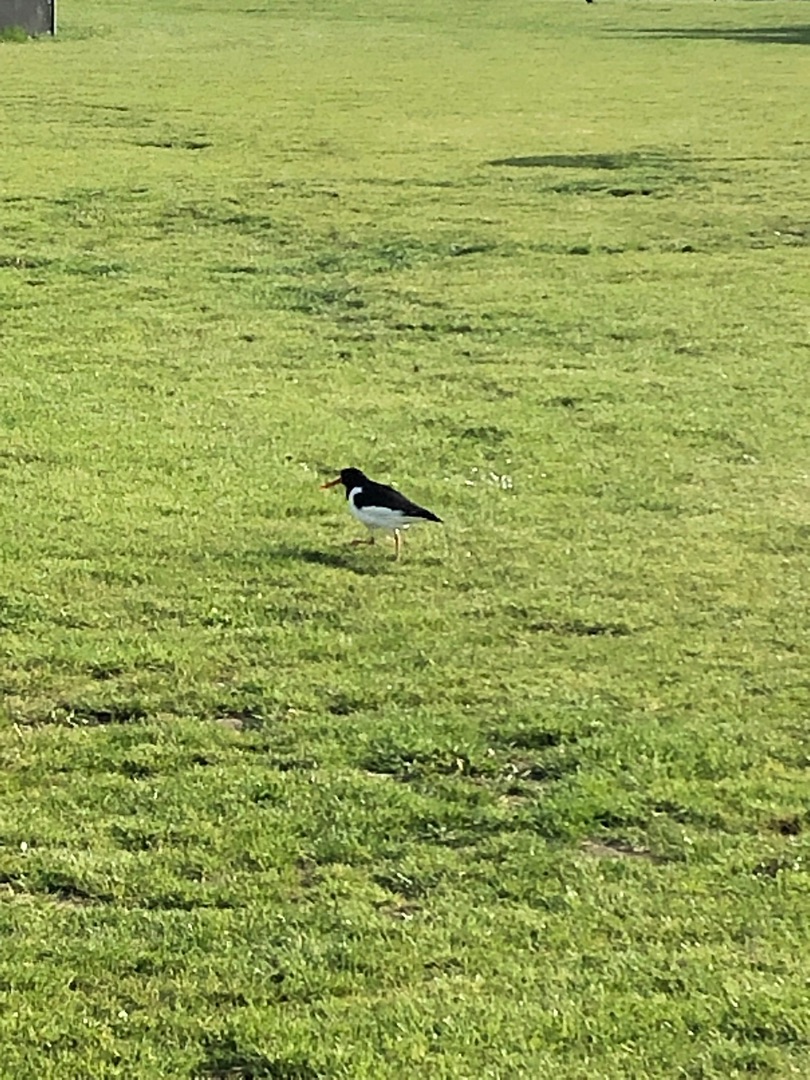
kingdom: Animalia
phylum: Chordata
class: Aves
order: Charadriiformes
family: Haematopodidae
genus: Haematopus
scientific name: Haematopus ostralegus
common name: Strandskade
